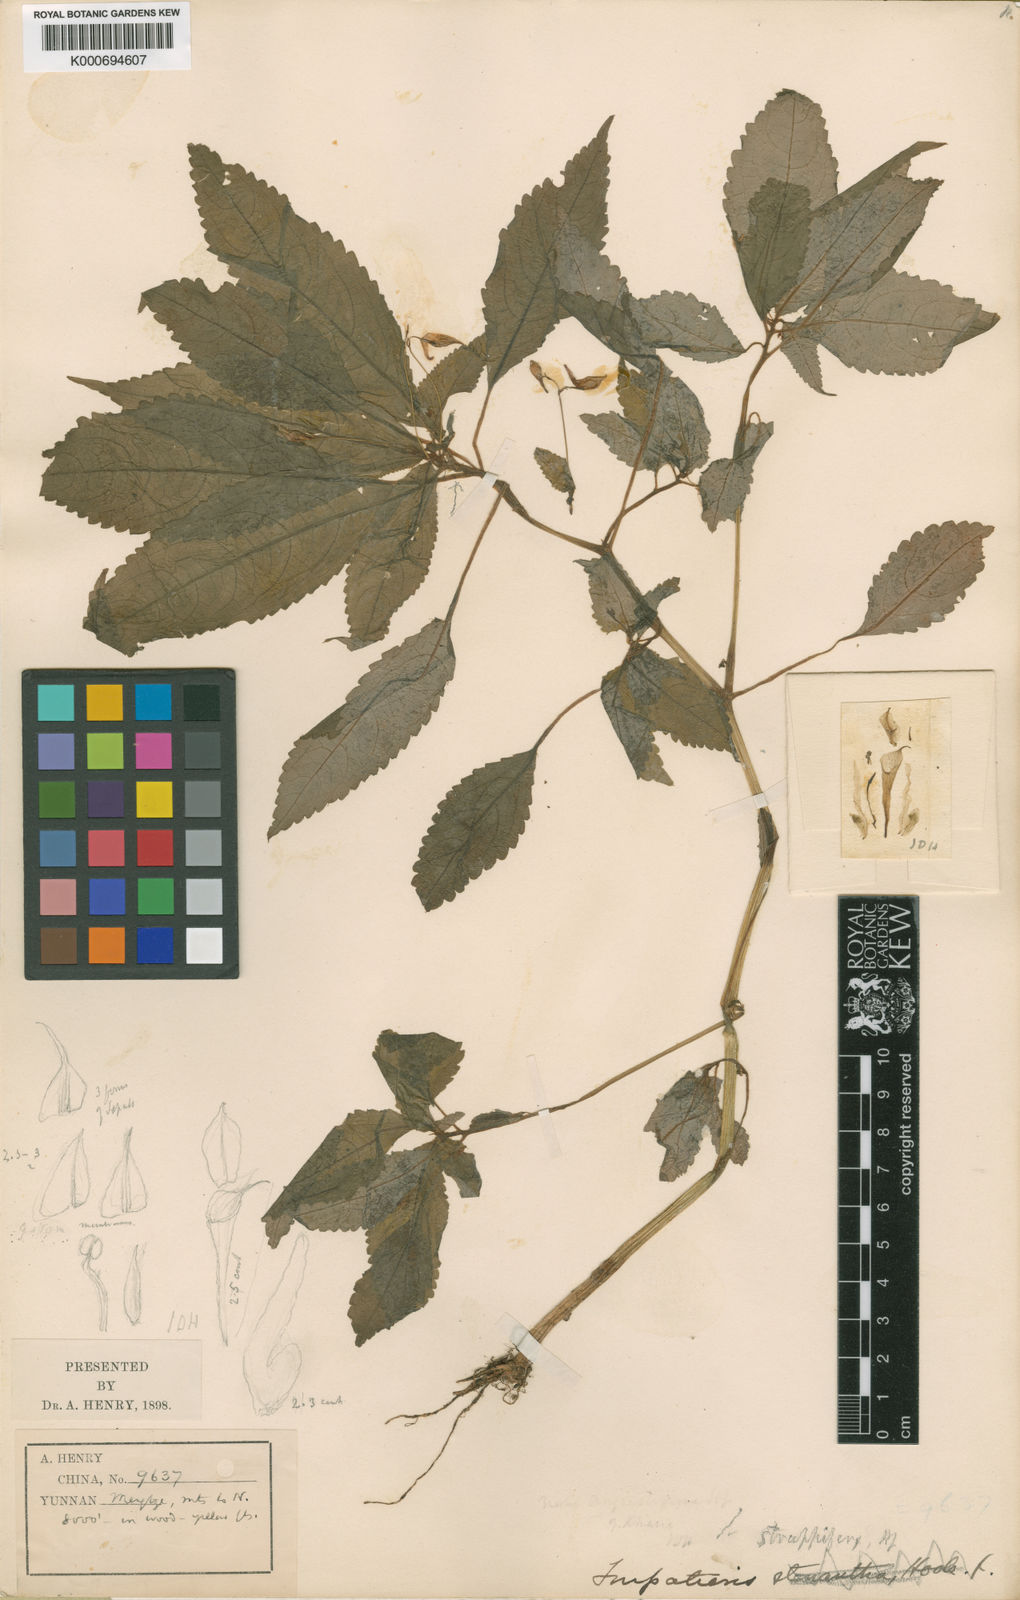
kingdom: Plantae
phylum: Tracheophyta
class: Magnoliopsida
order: Ericales
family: Balsaminaceae
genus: Impatiens
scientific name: Impatiens
